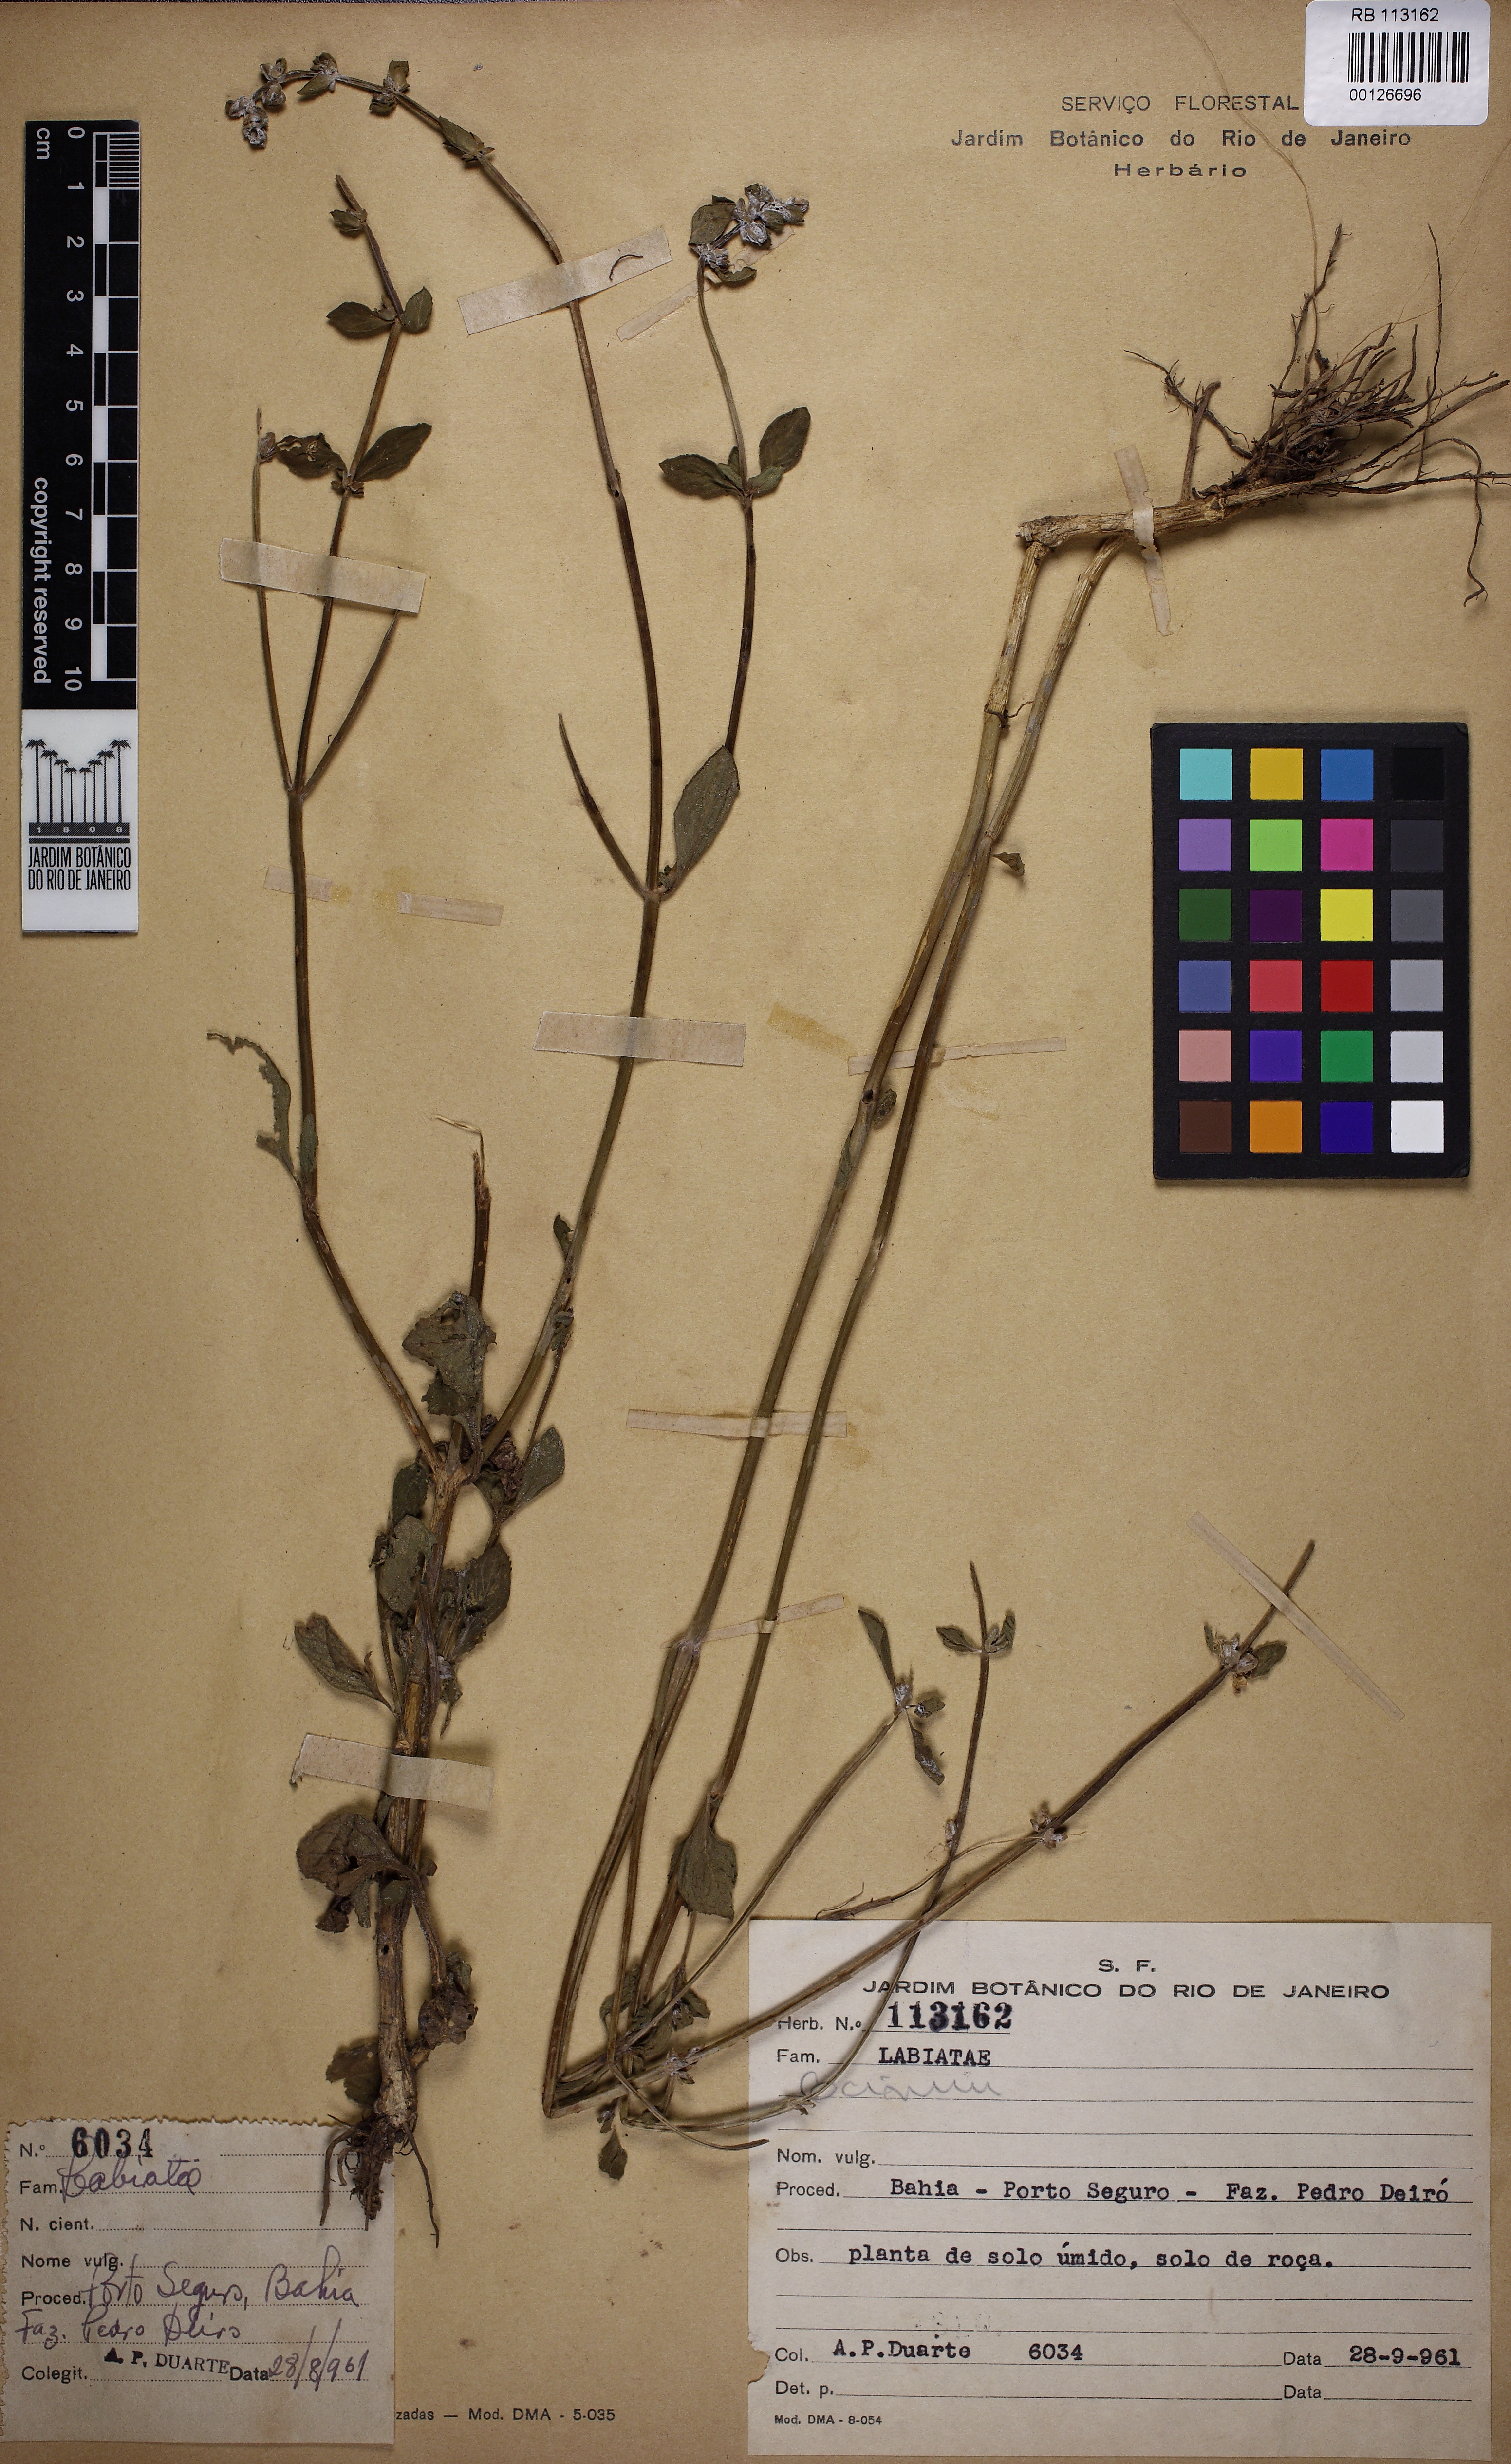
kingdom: Plantae
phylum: Tracheophyta
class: Magnoliopsida
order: Lamiales
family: Lamiaceae
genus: Ocimum
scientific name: Ocimum
